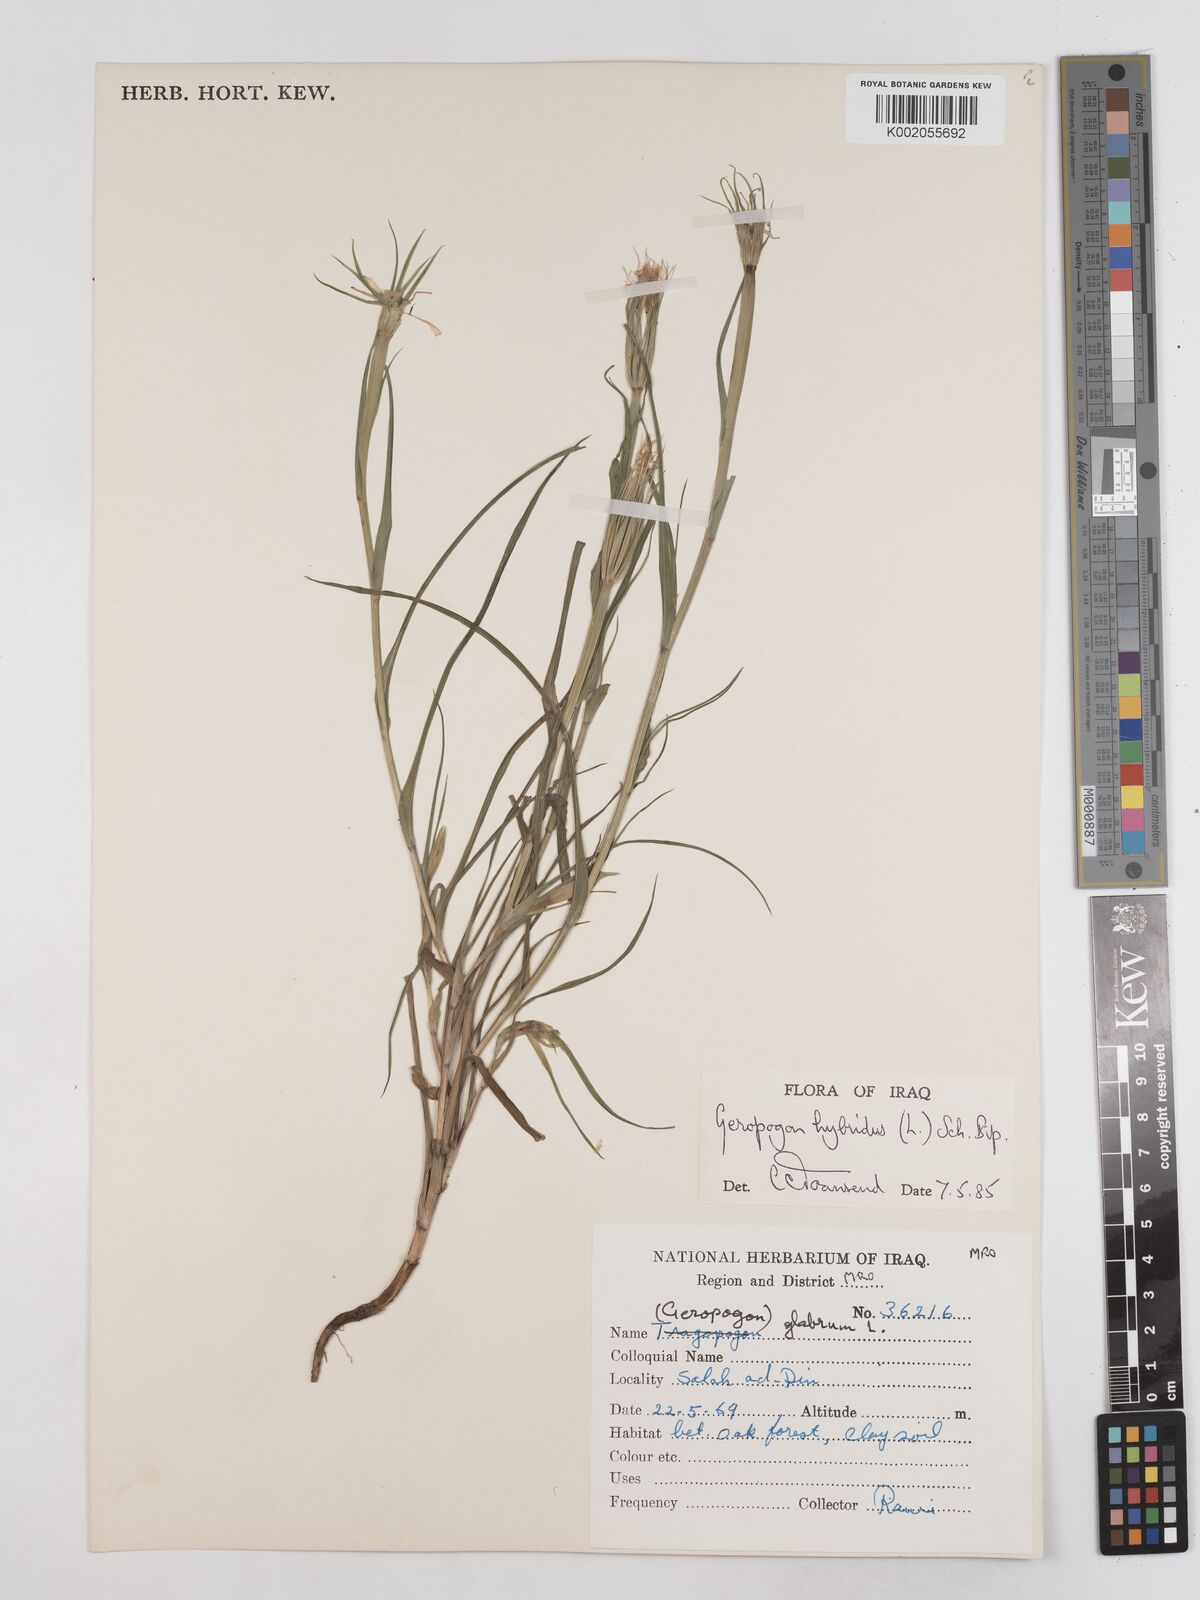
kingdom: Plantae
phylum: Tracheophyta
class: Magnoliopsida
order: Asterales
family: Asteraceae
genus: Geropogon
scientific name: Geropogon hybridus
